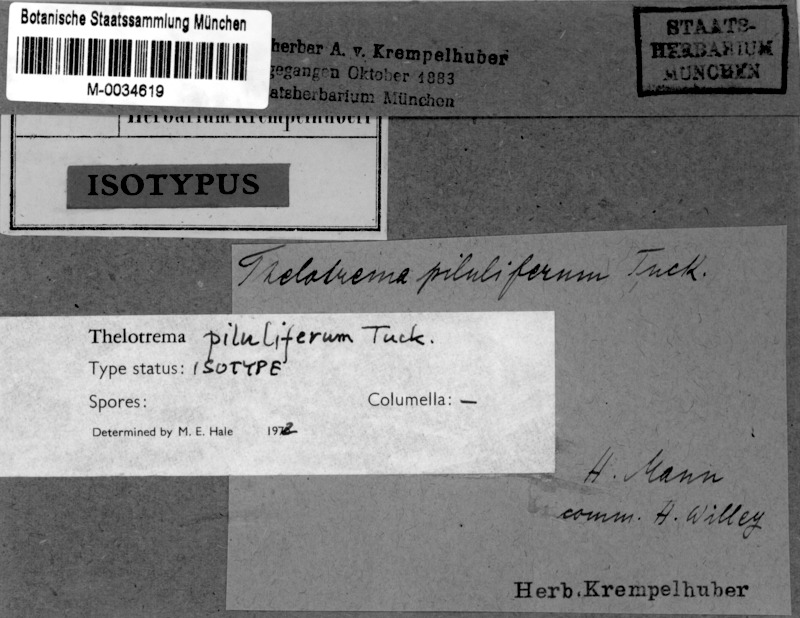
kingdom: Fungi
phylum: Ascomycota
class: Lecanoromycetes
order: Ostropales
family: Graphidaceae
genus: Fibrillithecis
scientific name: Fibrillithecis vernicosa
